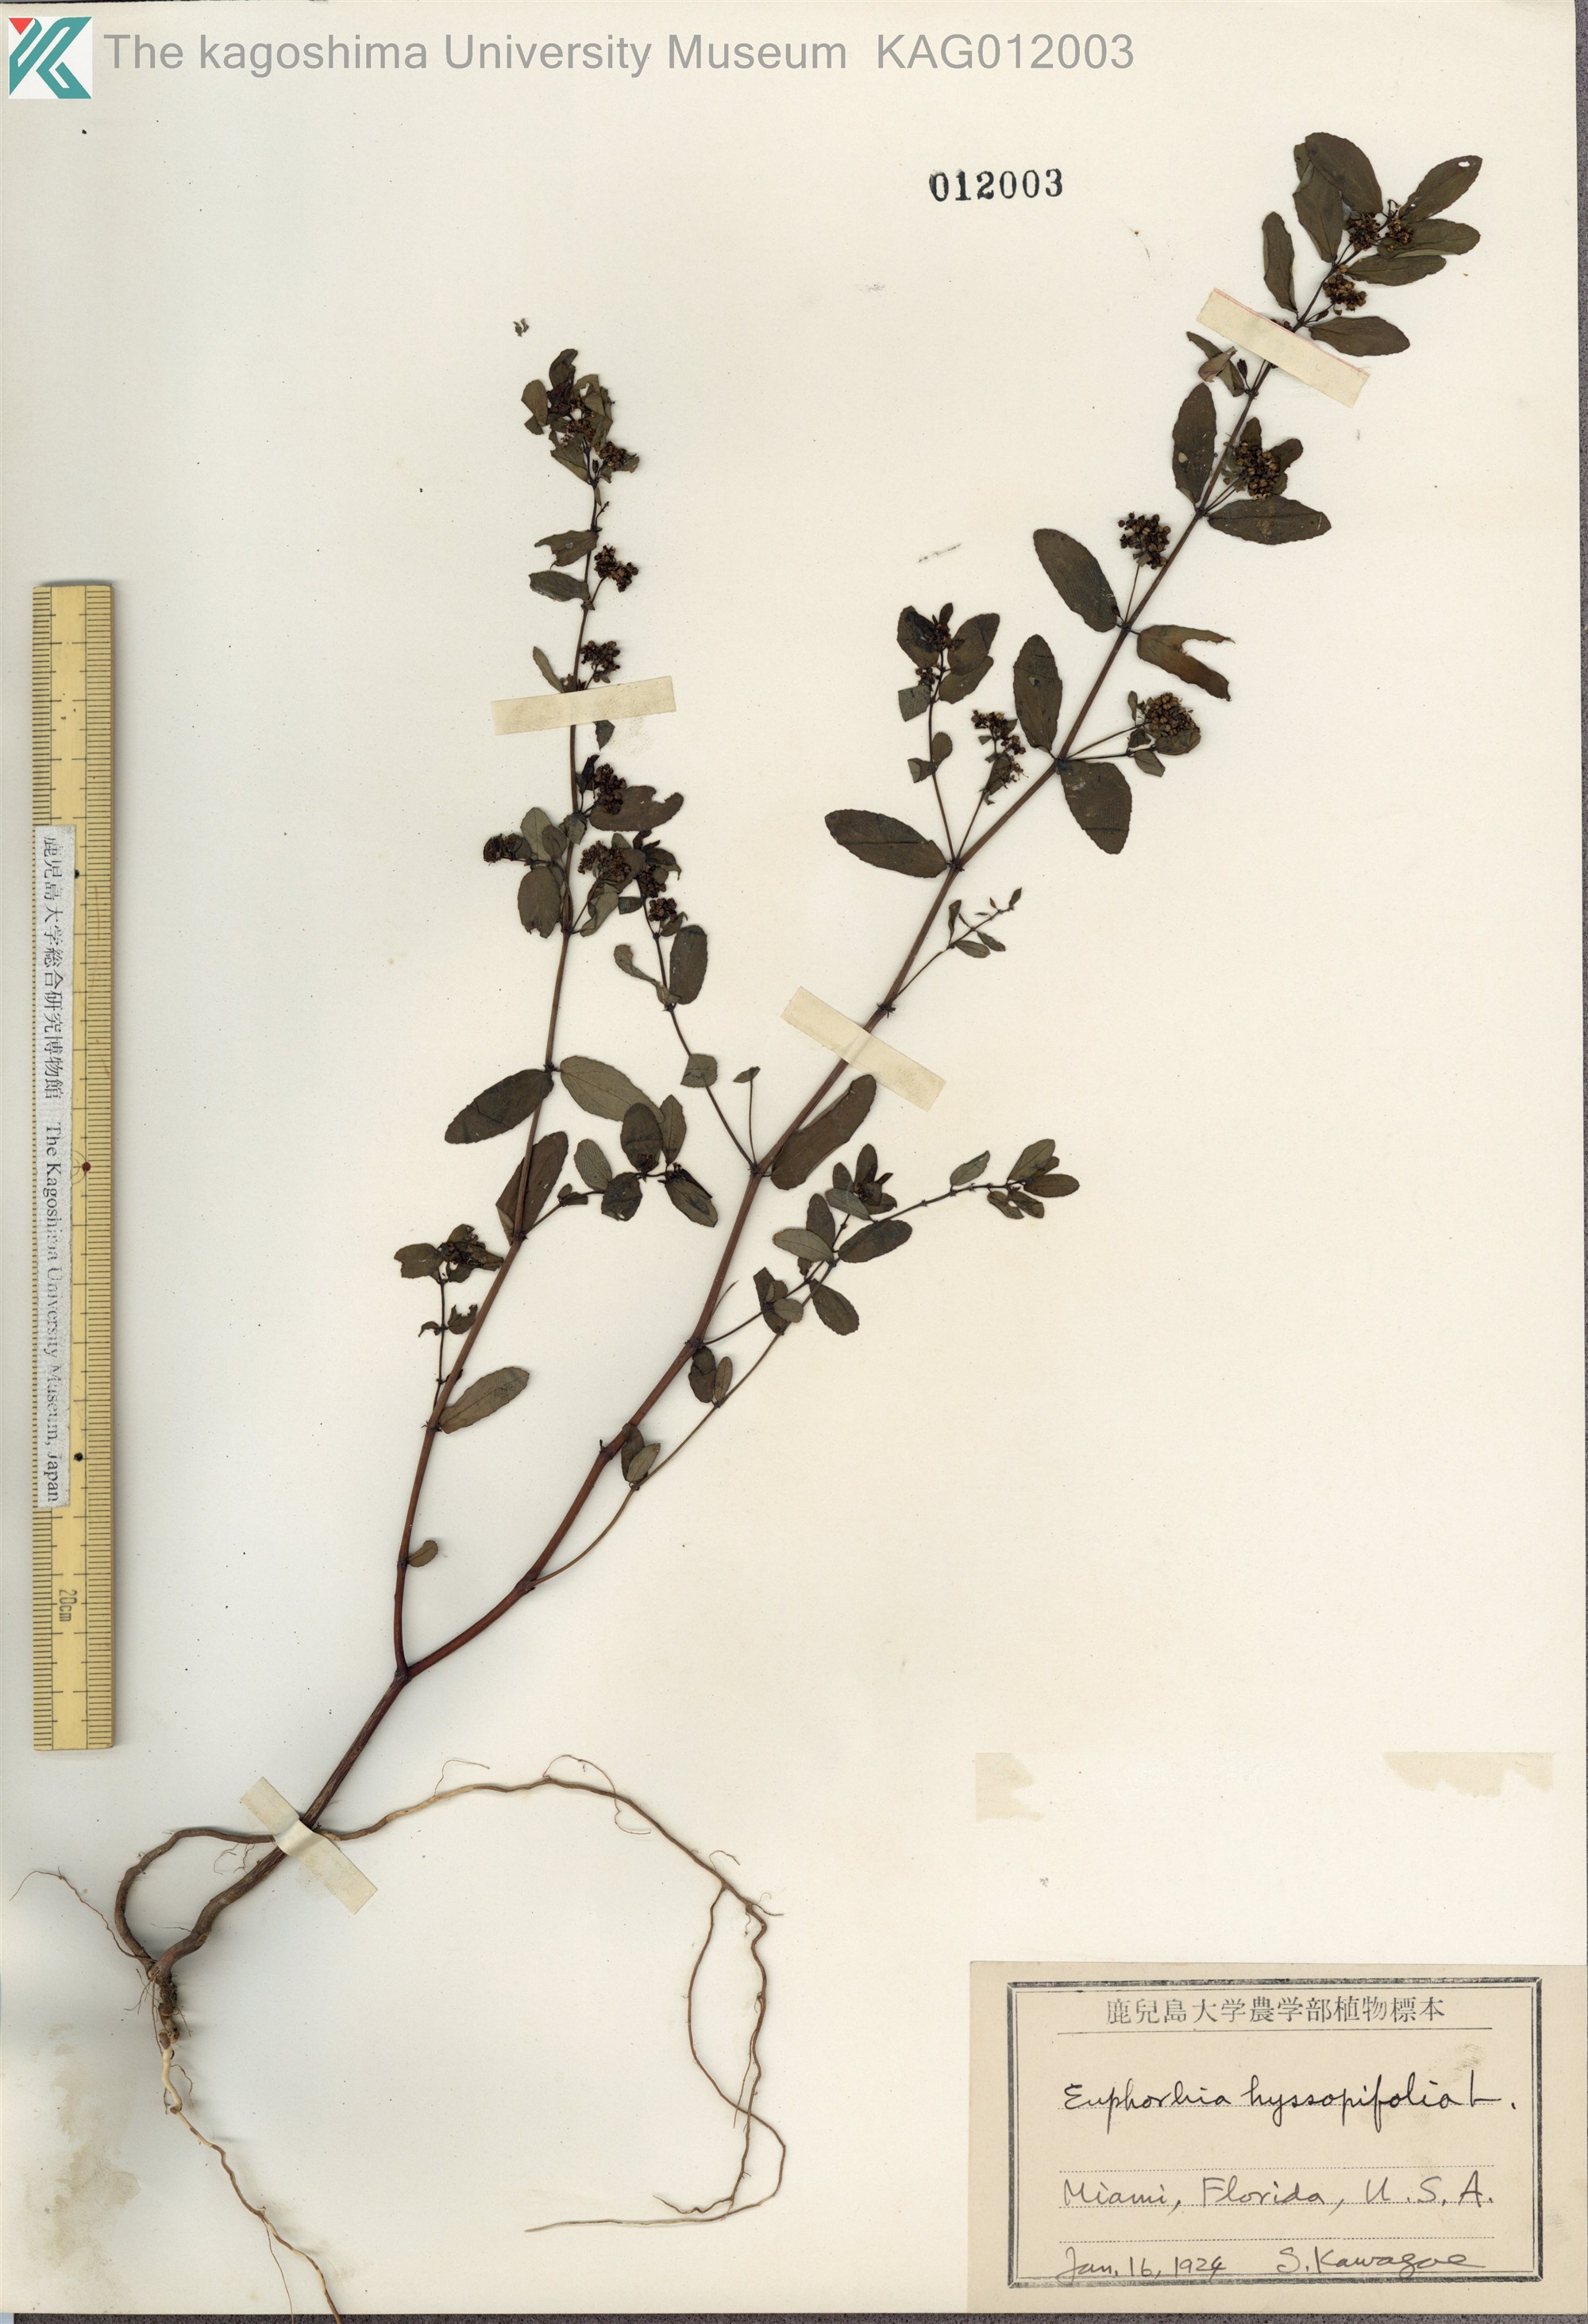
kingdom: Plantae
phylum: Tracheophyta
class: Magnoliopsida
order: Malpighiales
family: Euphorbiaceae
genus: Euphorbia
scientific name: Euphorbia hyssopifolia
